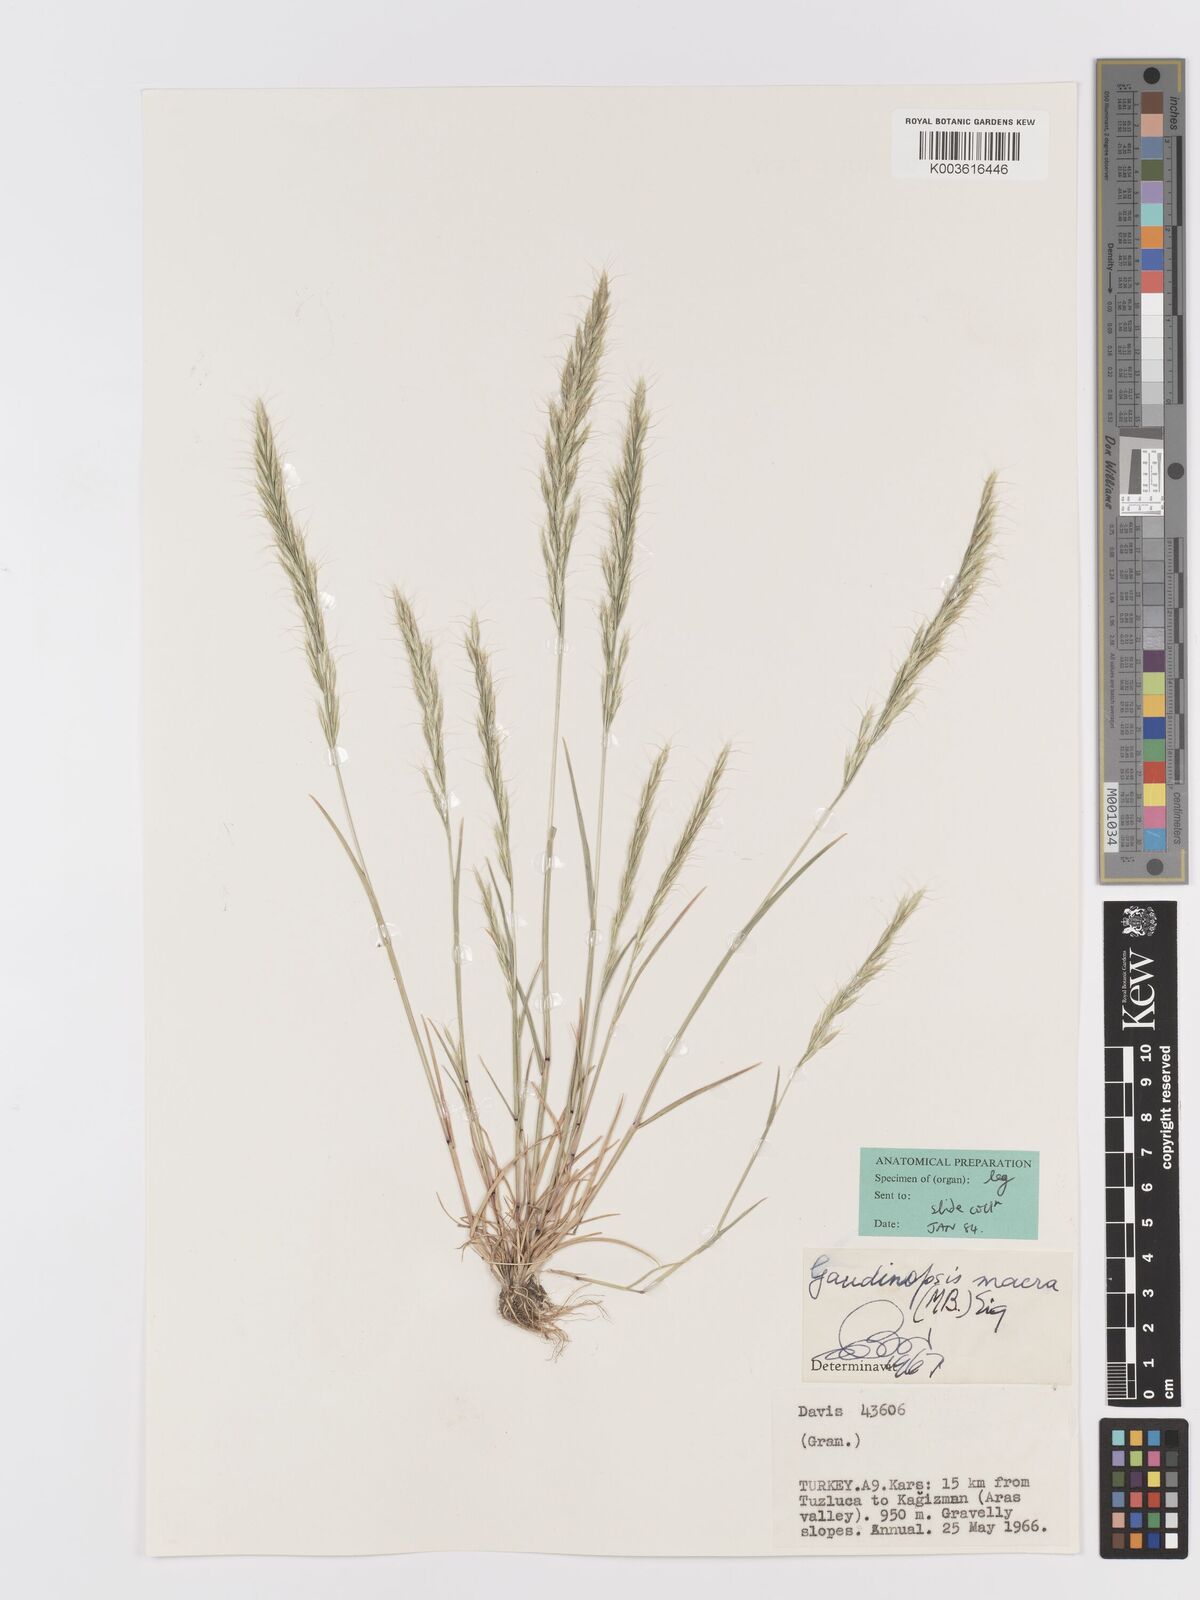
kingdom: Plantae
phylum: Tracheophyta
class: Liliopsida
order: Poales
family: Poaceae
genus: Ventenata
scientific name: Ventenata macra
